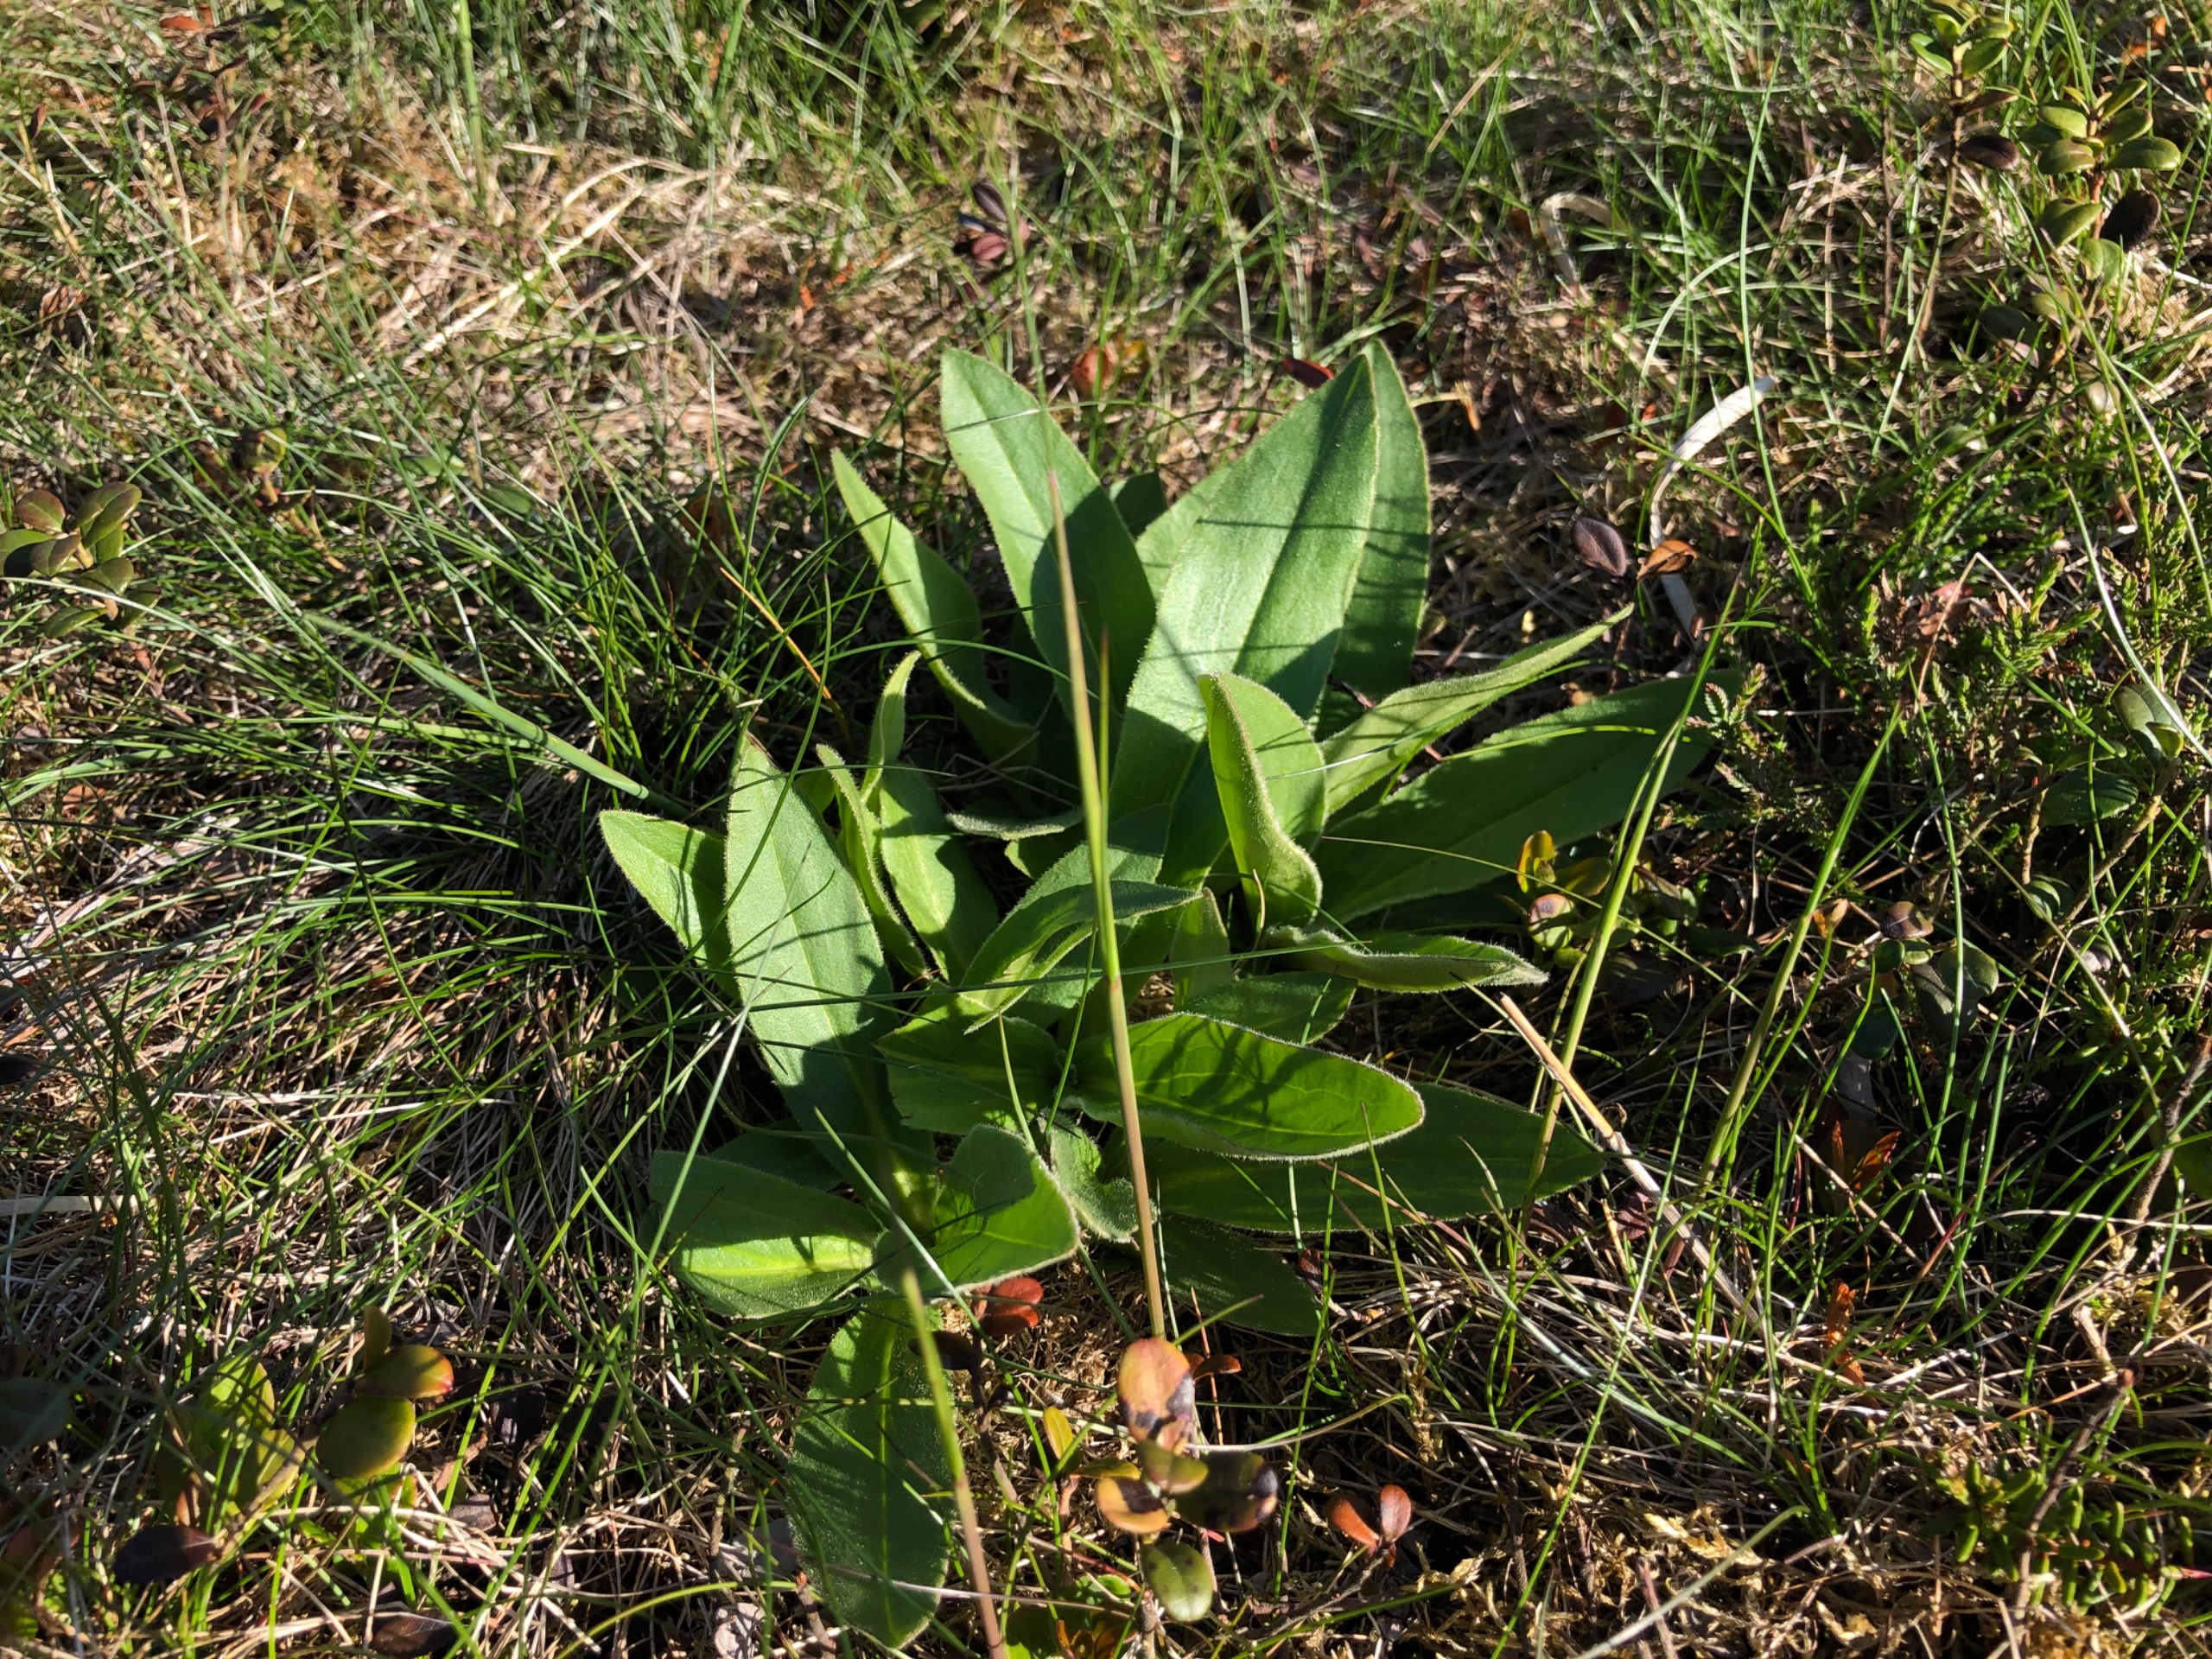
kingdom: Plantae
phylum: Tracheophyta
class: Magnoliopsida
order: Asterales
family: Asteraceae
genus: Arnica
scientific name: Arnica montana
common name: Guldblomme
